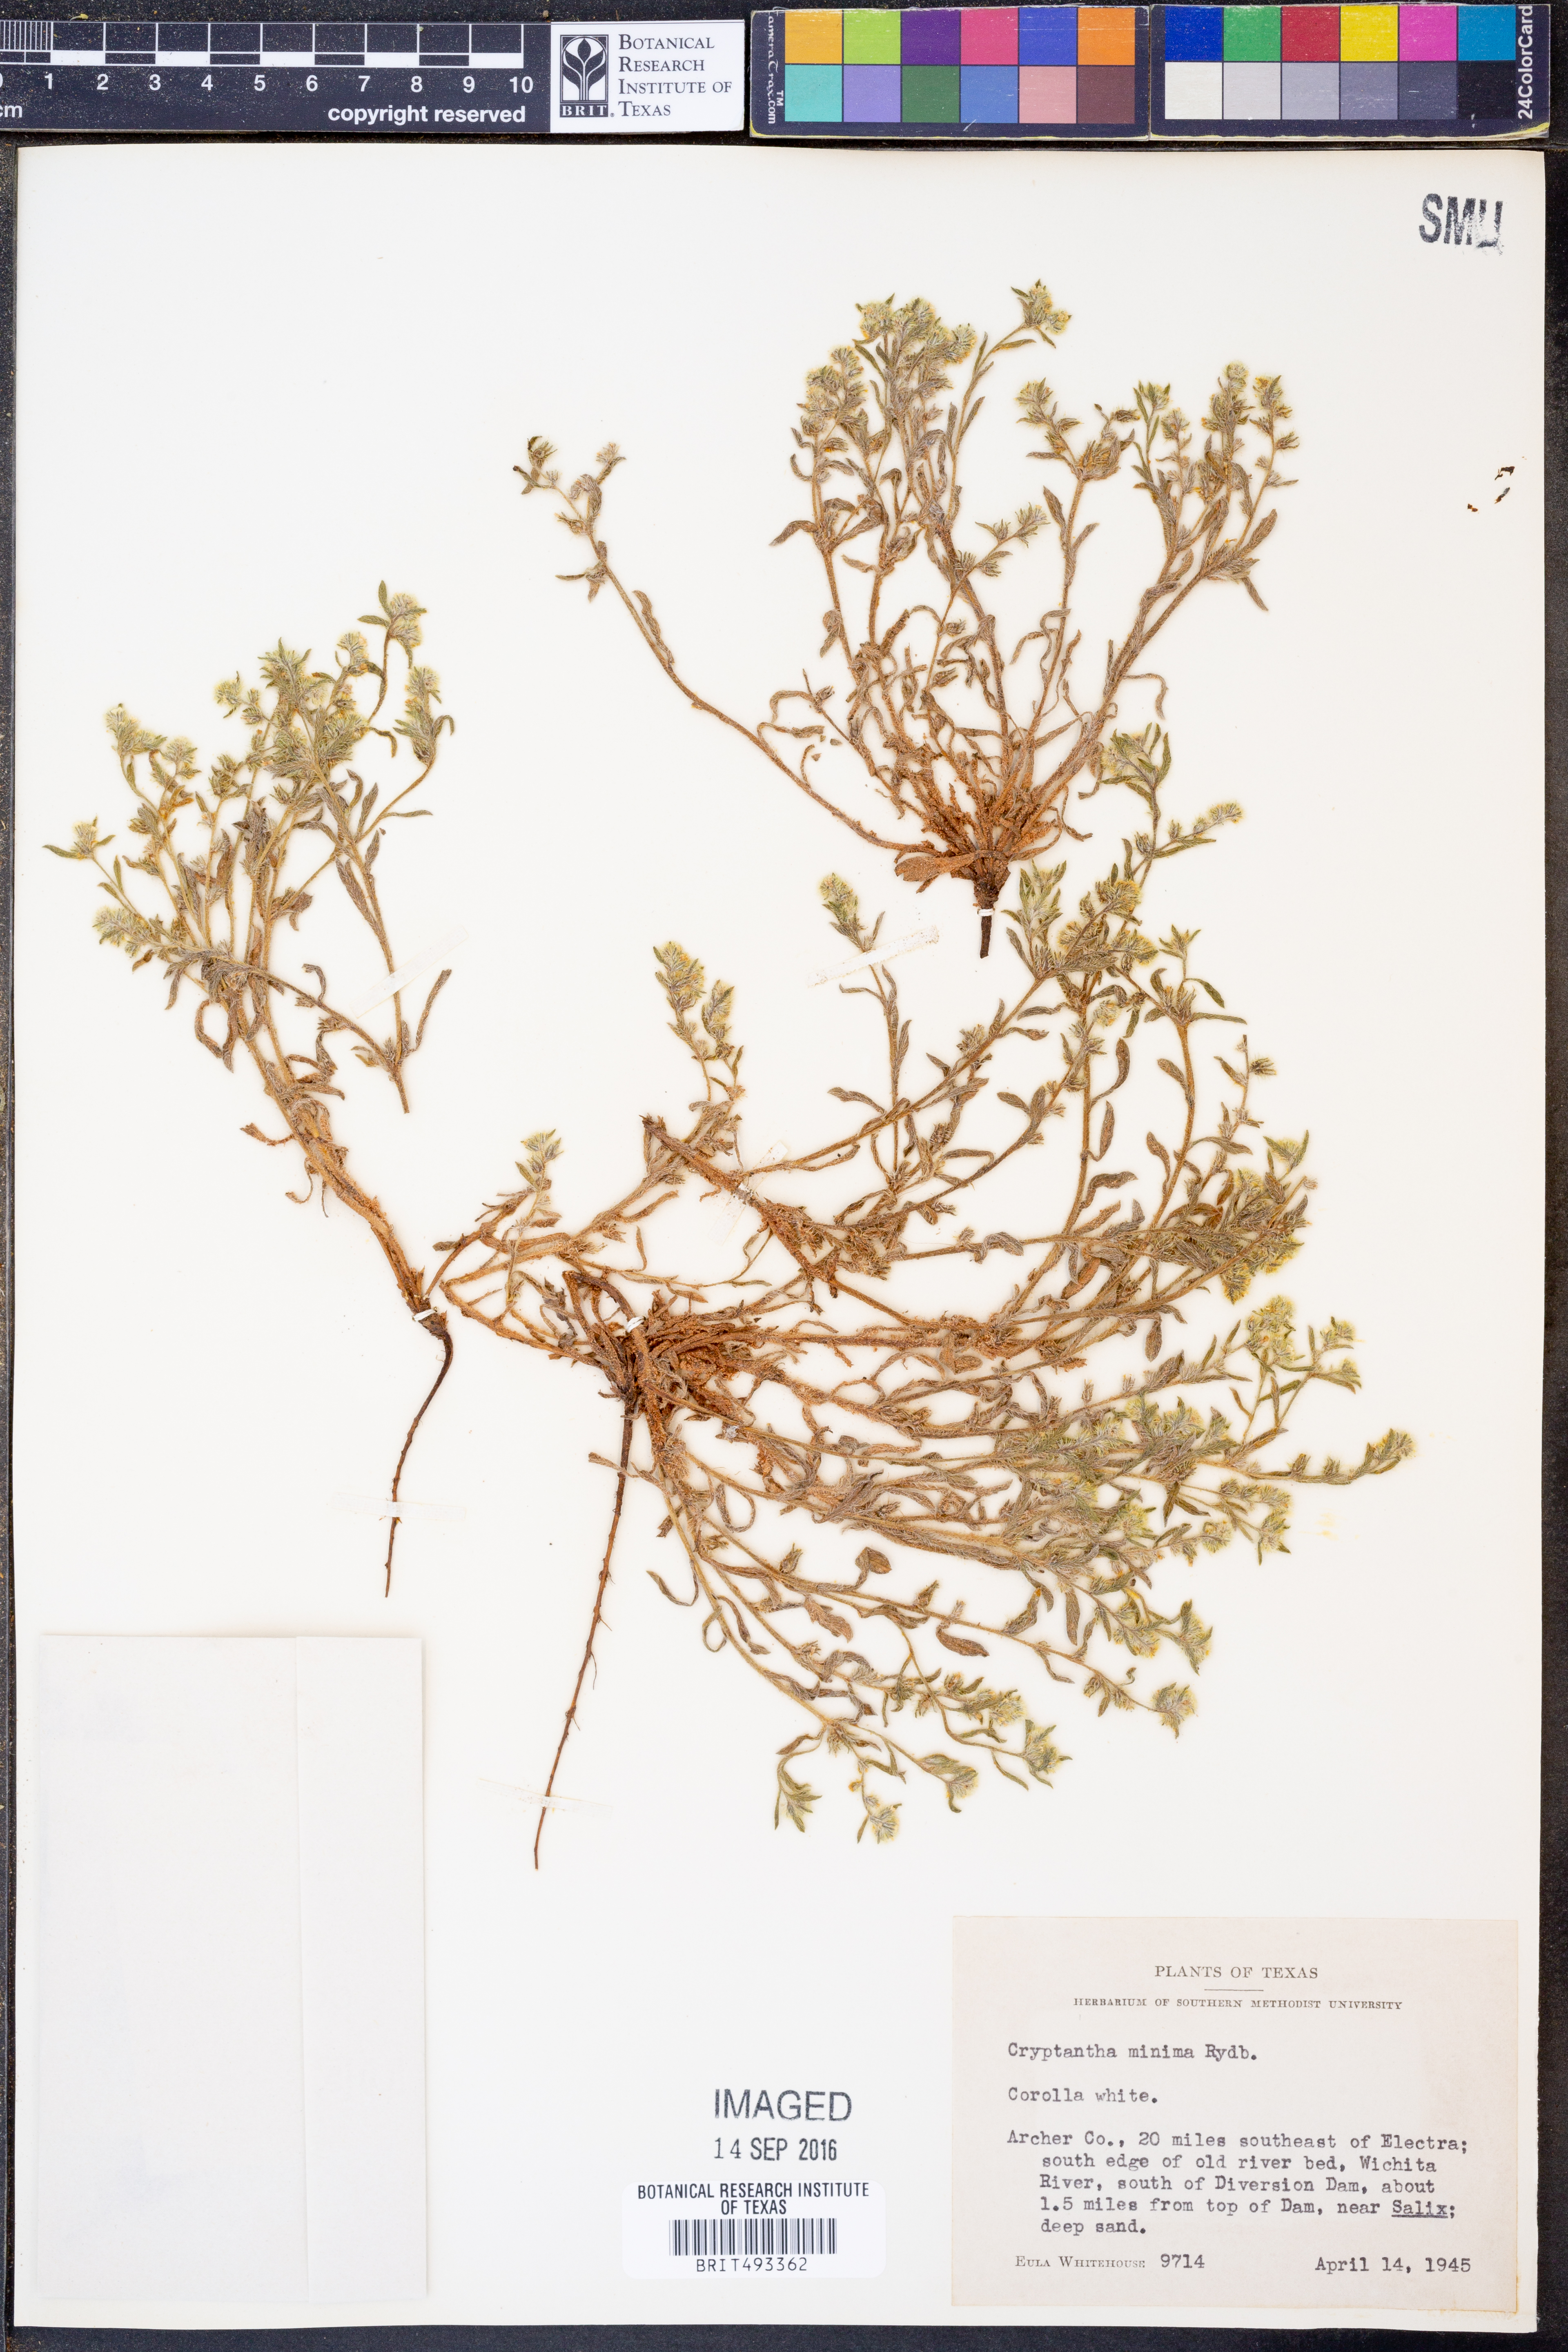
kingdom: Plantae
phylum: Tracheophyta
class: Magnoliopsida
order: Boraginales
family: Boraginaceae
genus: Cryptantha
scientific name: Cryptantha minima
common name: Little cat's-eye
